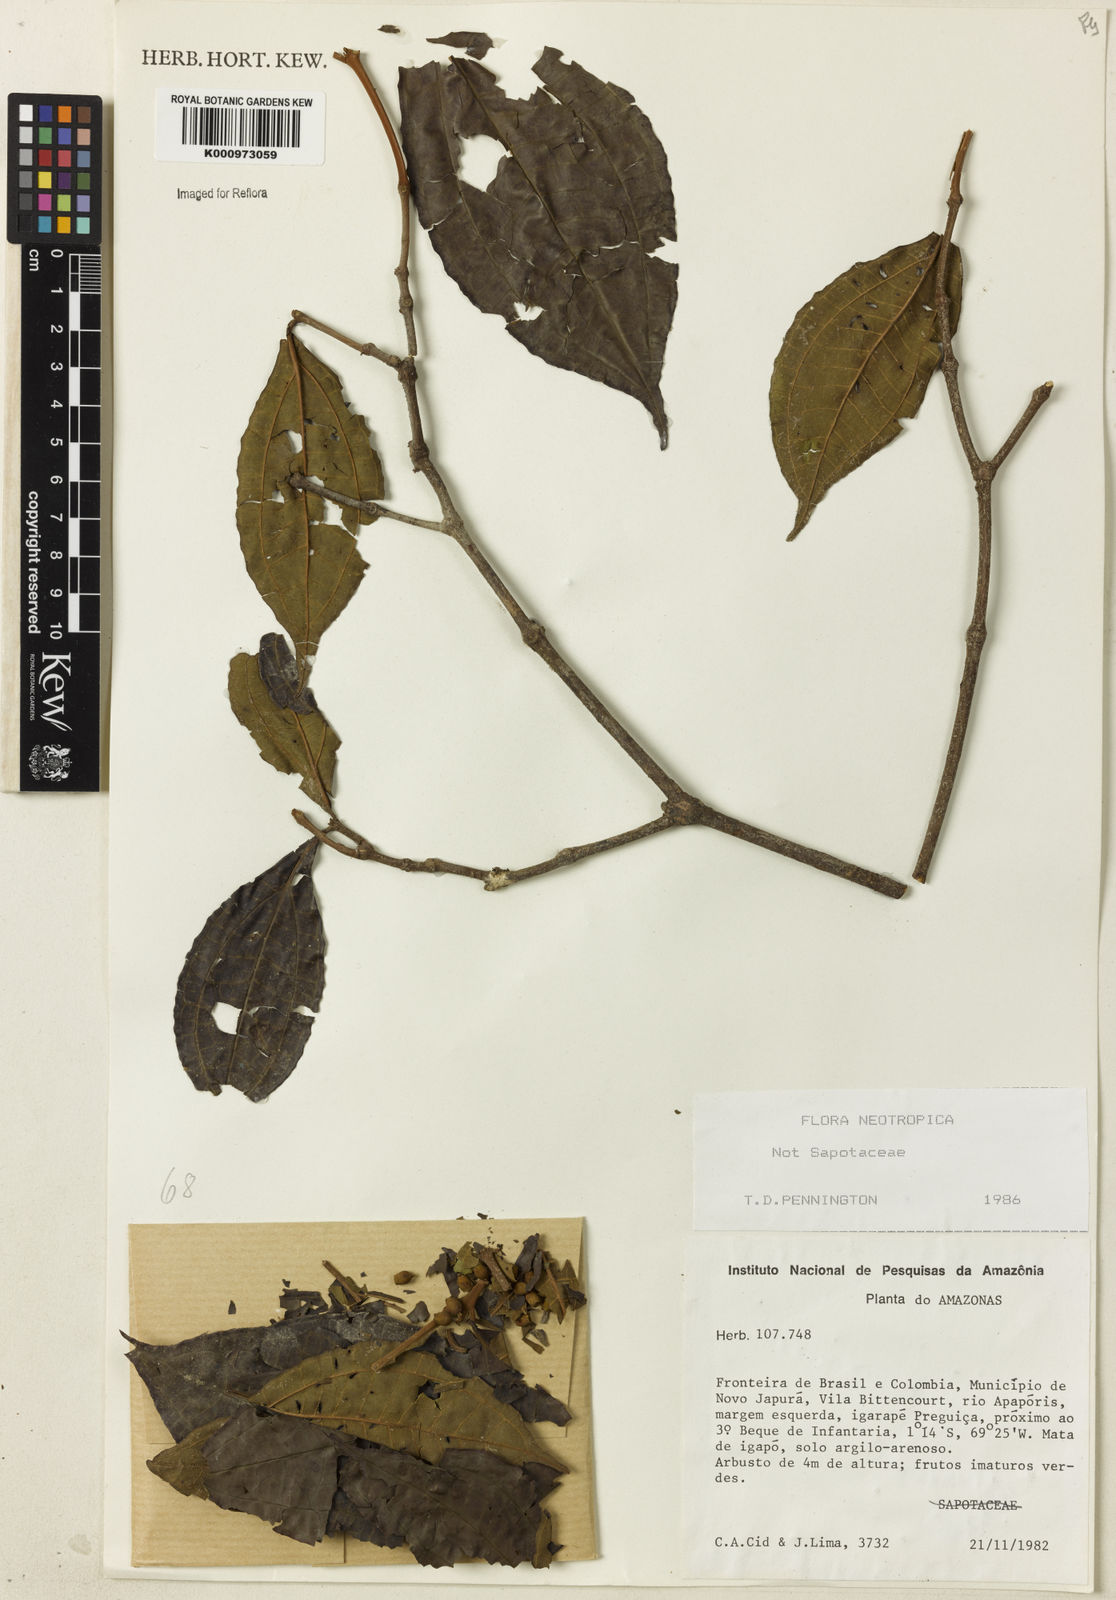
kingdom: Plantae
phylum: Tracheophyta
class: Magnoliopsida
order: Myrtales
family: Melastomataceae
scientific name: Melastomataceae
